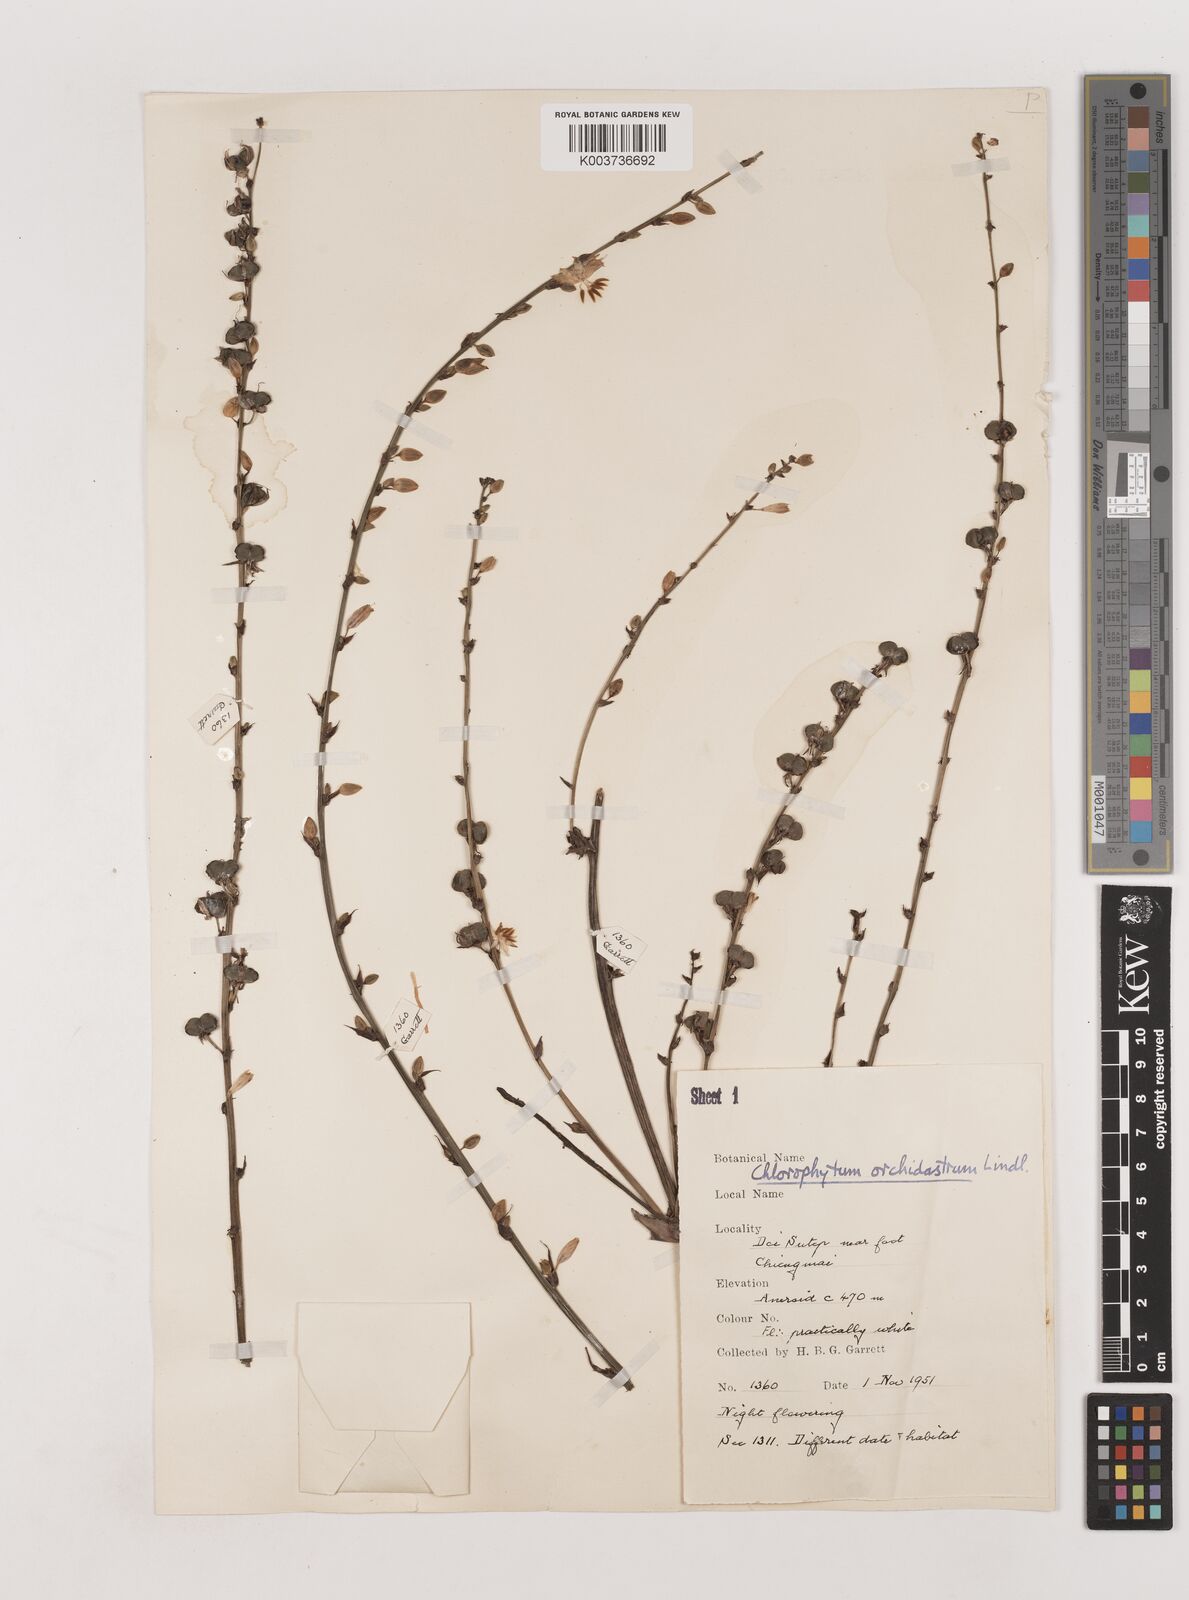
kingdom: Plantae
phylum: Tracheophyta
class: Liliopsida
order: Asparagales
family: Asparagaceae
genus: Chlorophytum
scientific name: Chlorophytum
